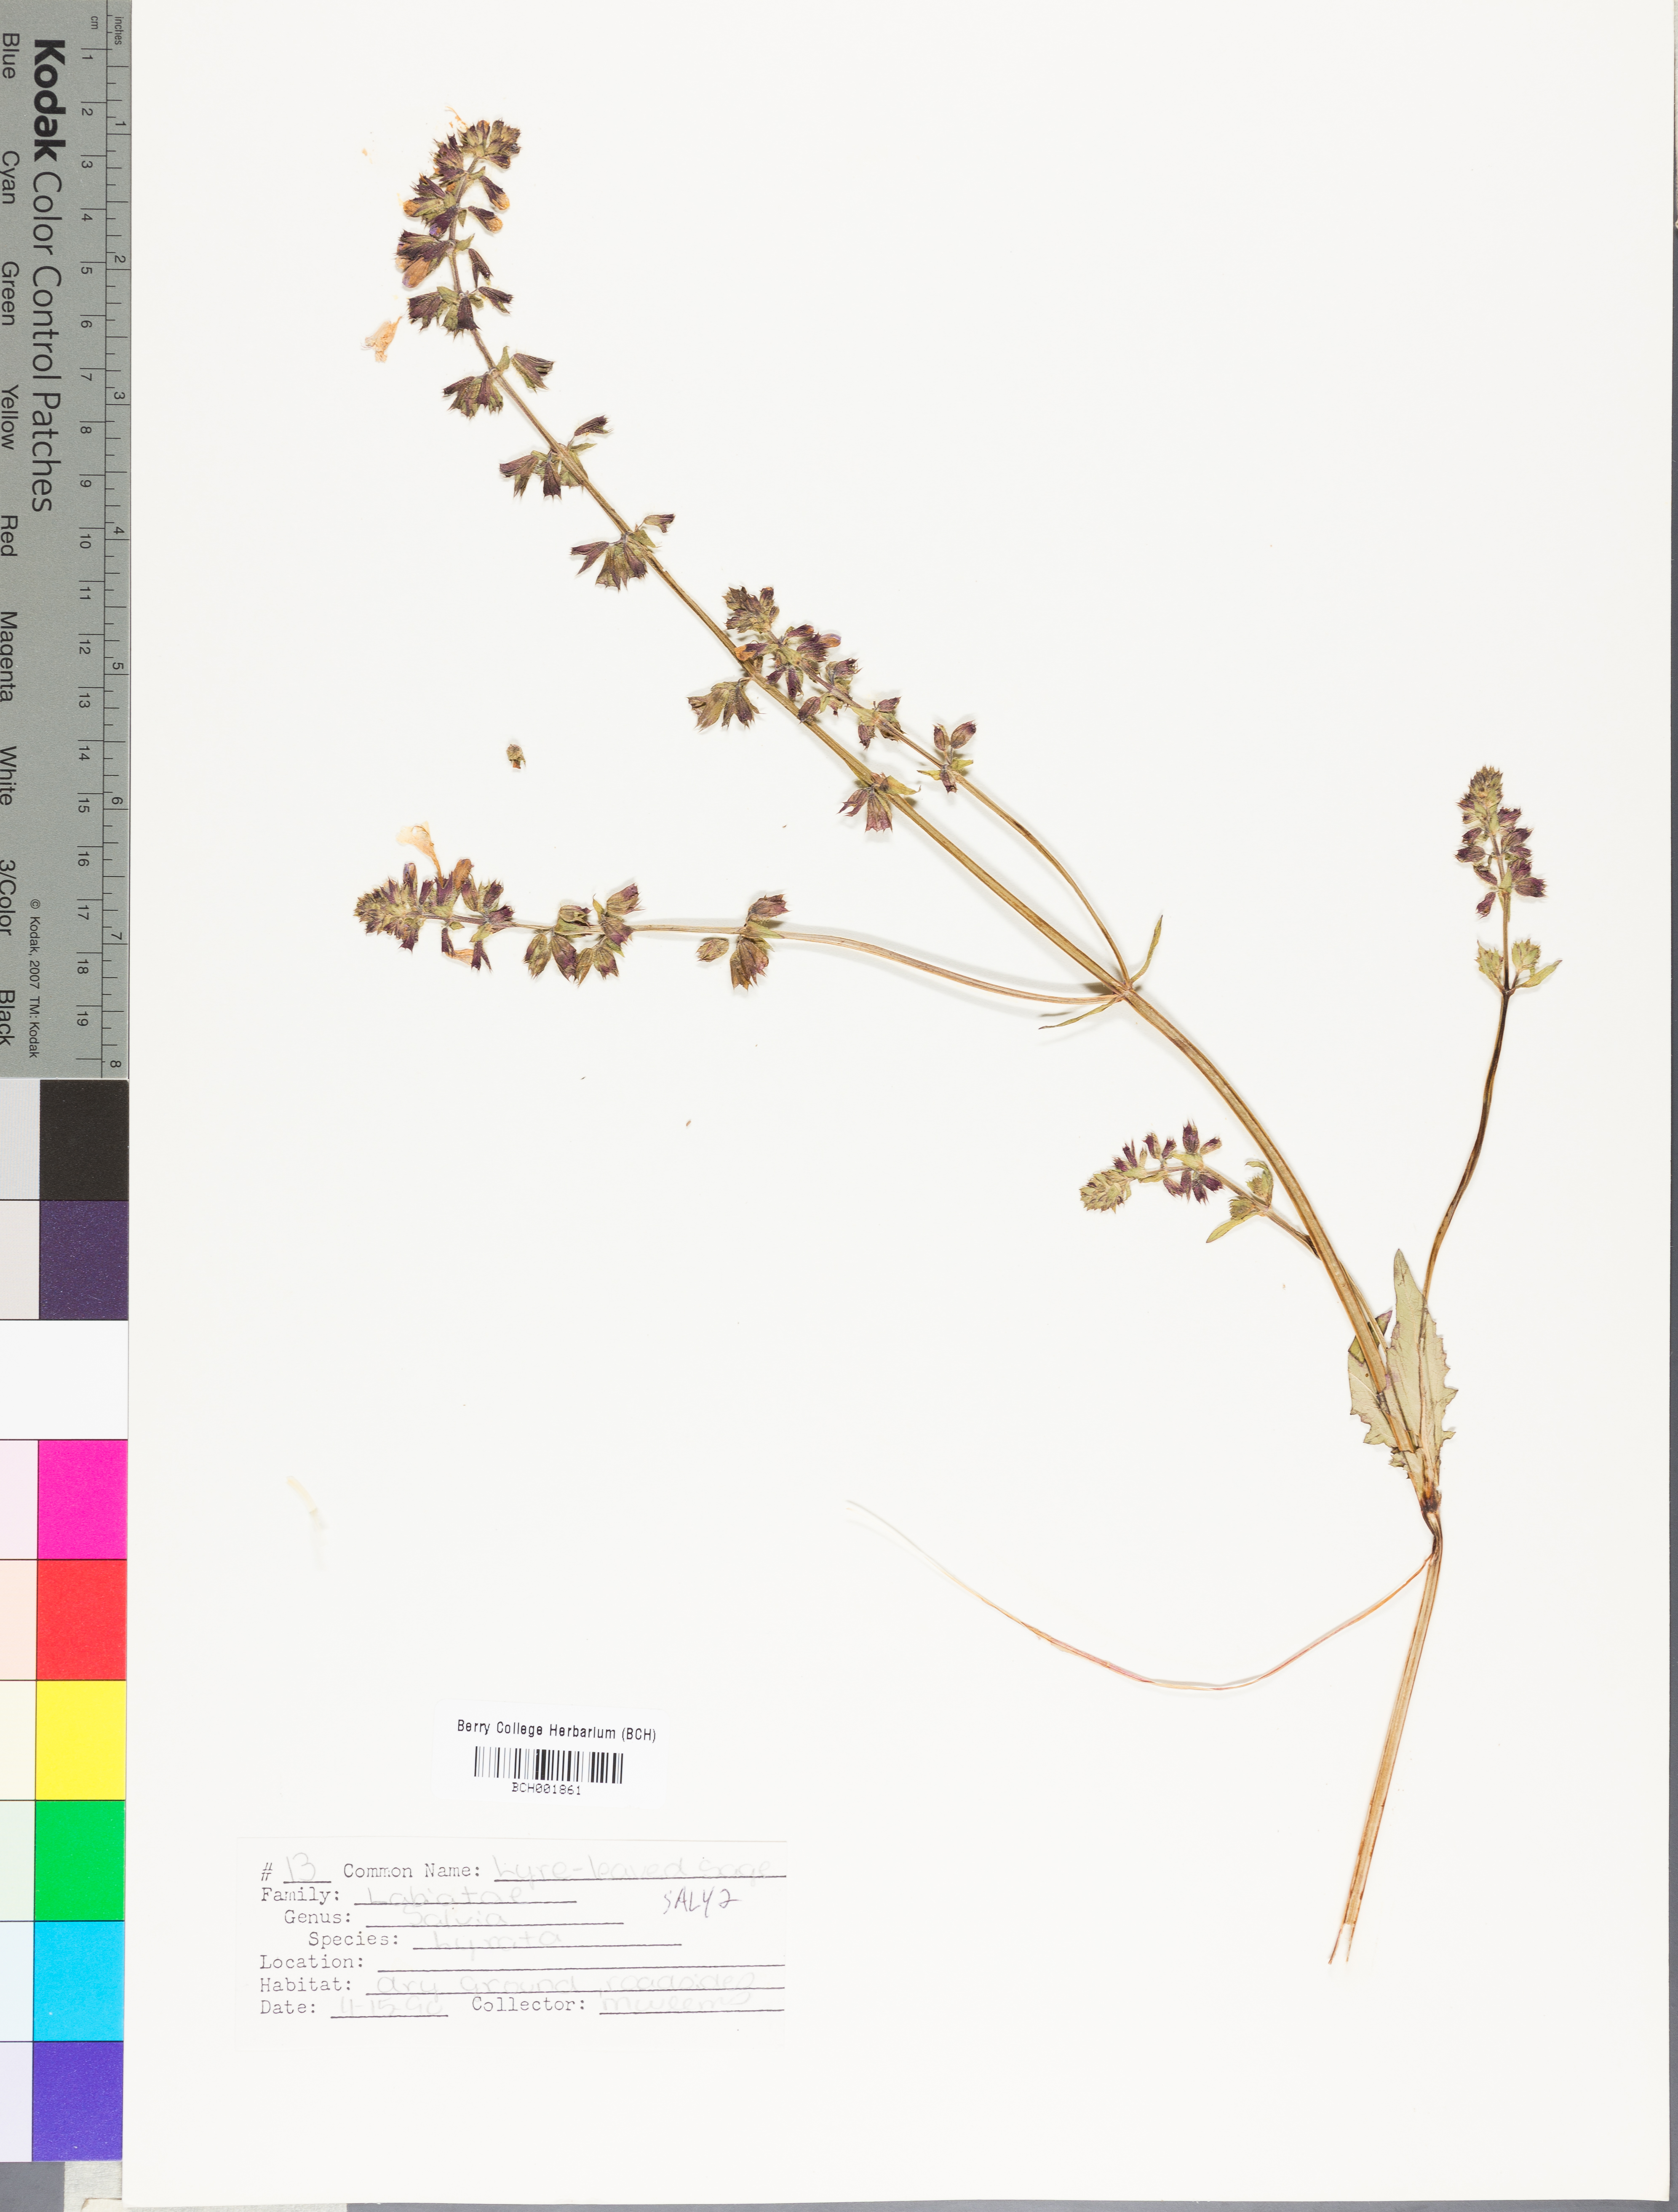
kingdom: Plantae
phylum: Tracheophyta
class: Magnoliopsida
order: Lamiales
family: Lamiaceae
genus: Salvia
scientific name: Salvia lyrata
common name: Cancerweed
